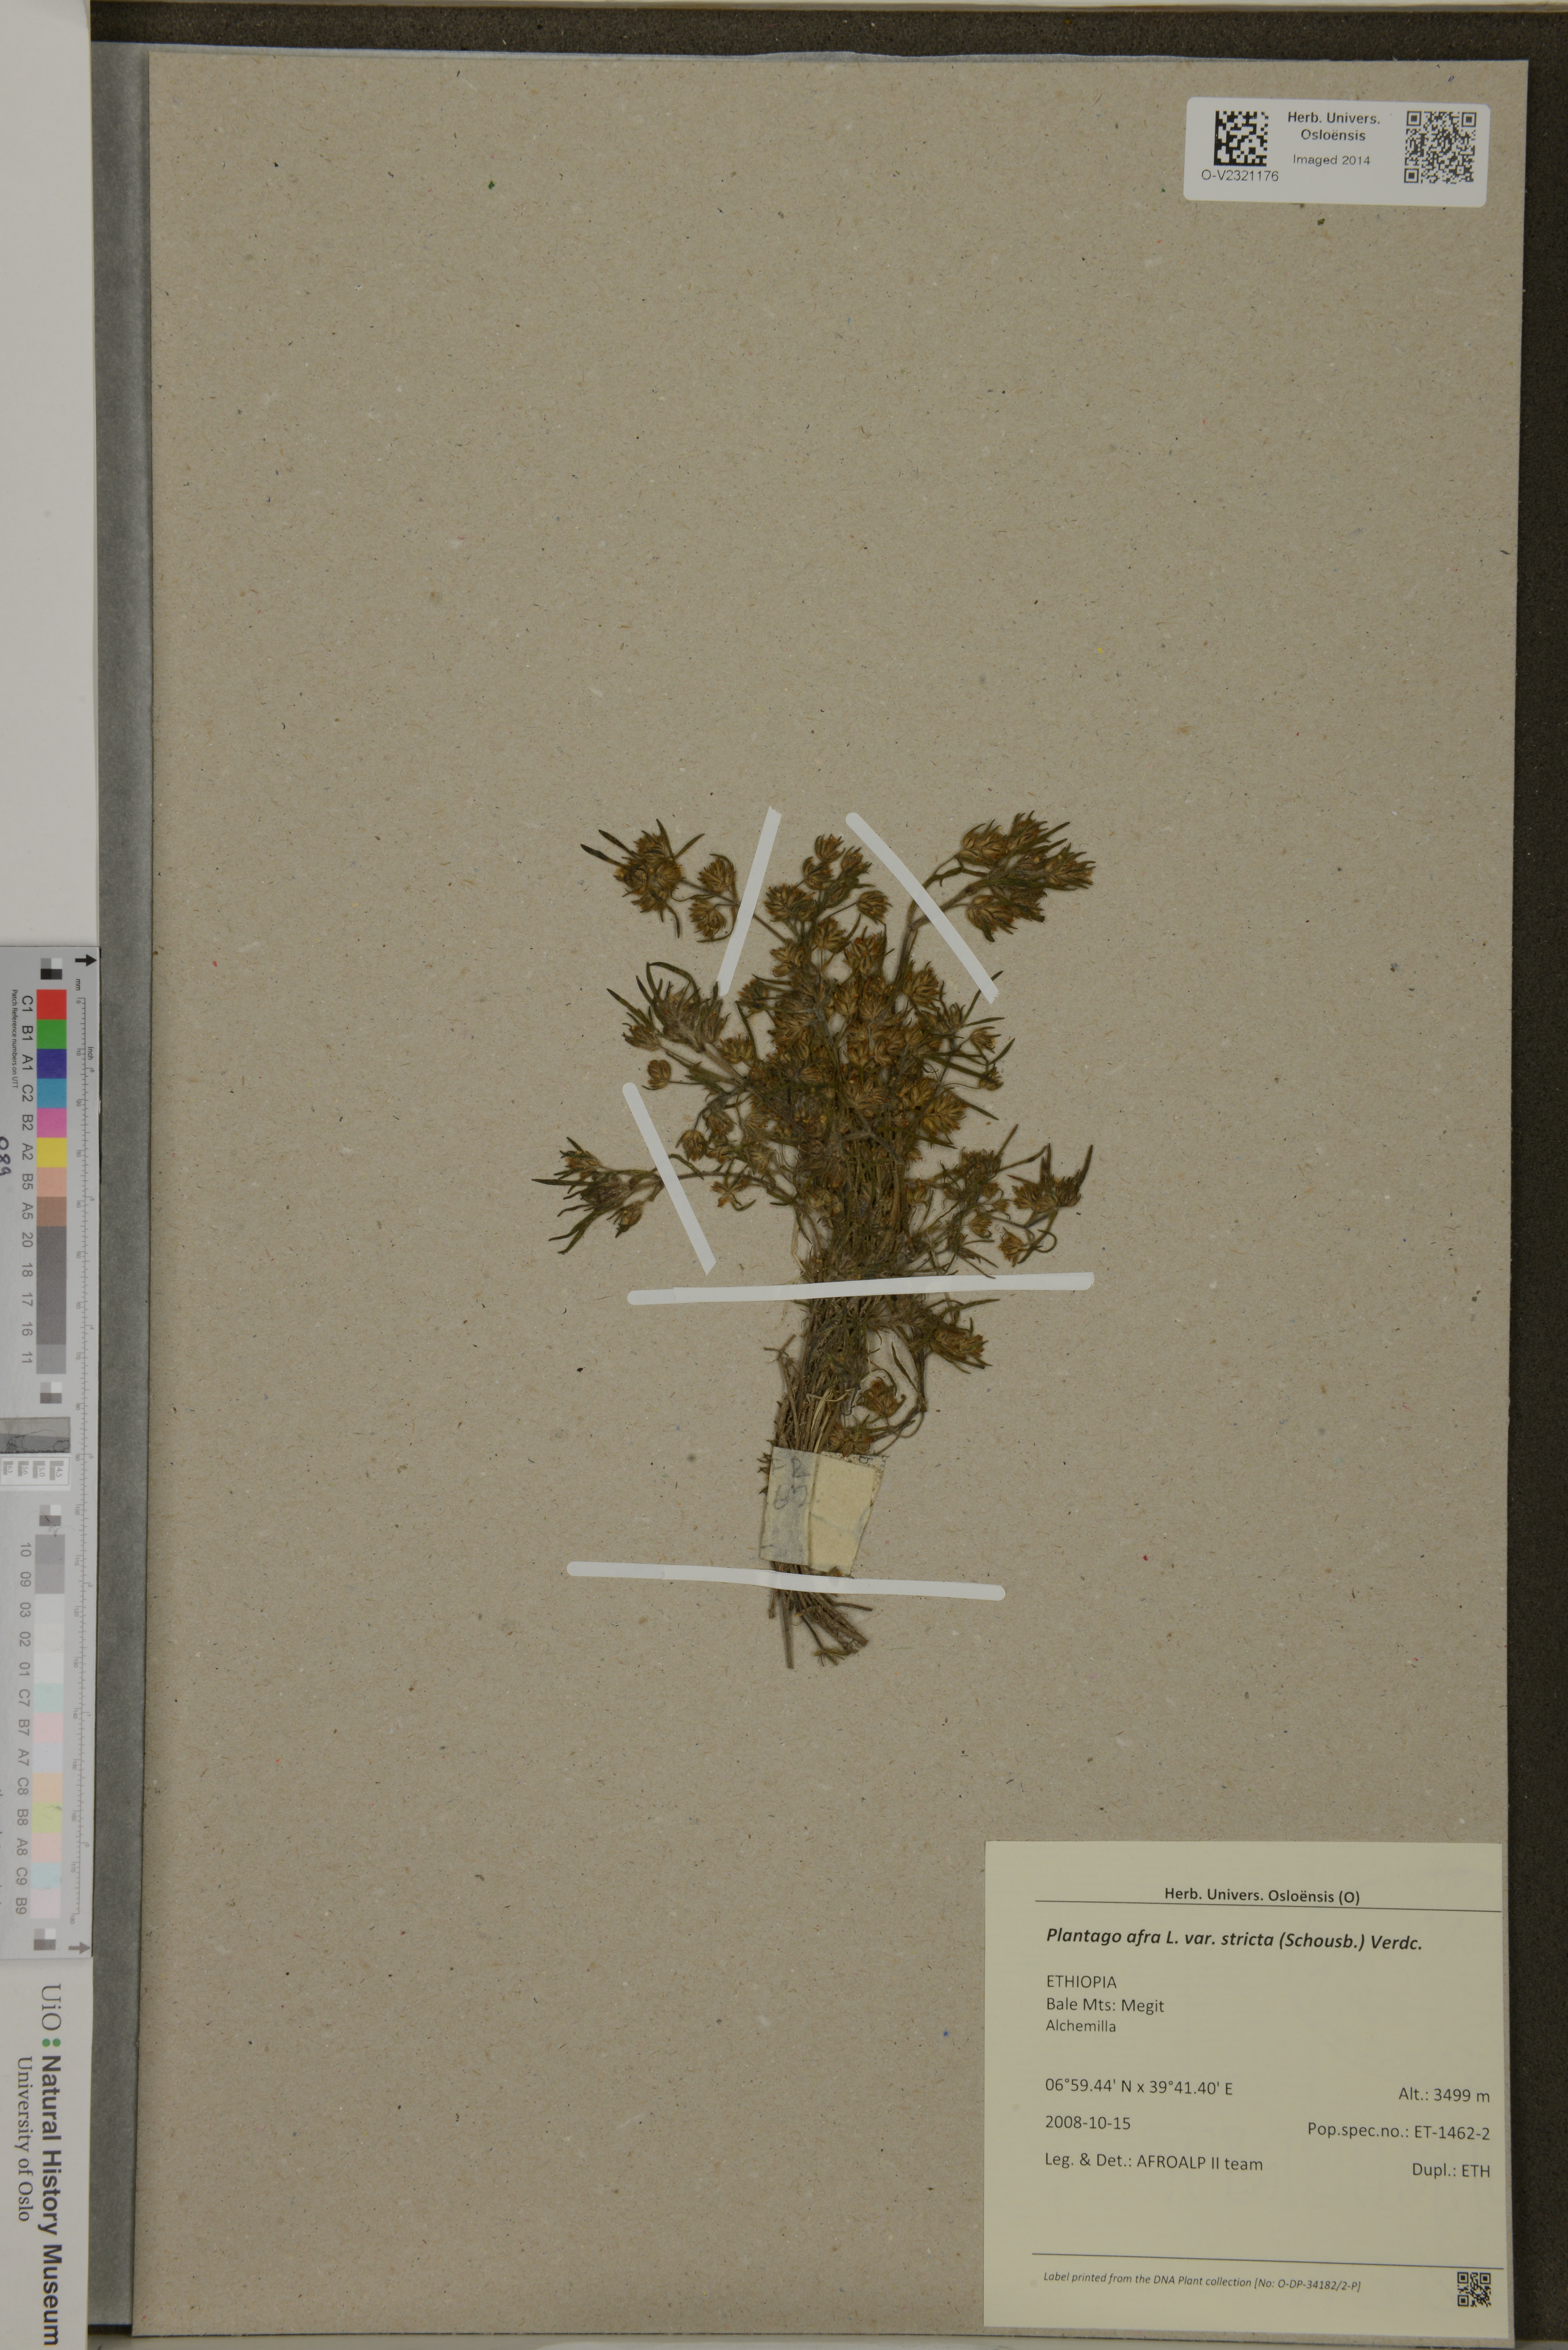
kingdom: Plantae
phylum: Tracheophyta
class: Magnoliopsida
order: Lamiales
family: Plantaginaceae
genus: Plantago
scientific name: Plantago afra
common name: Glandular plantain
